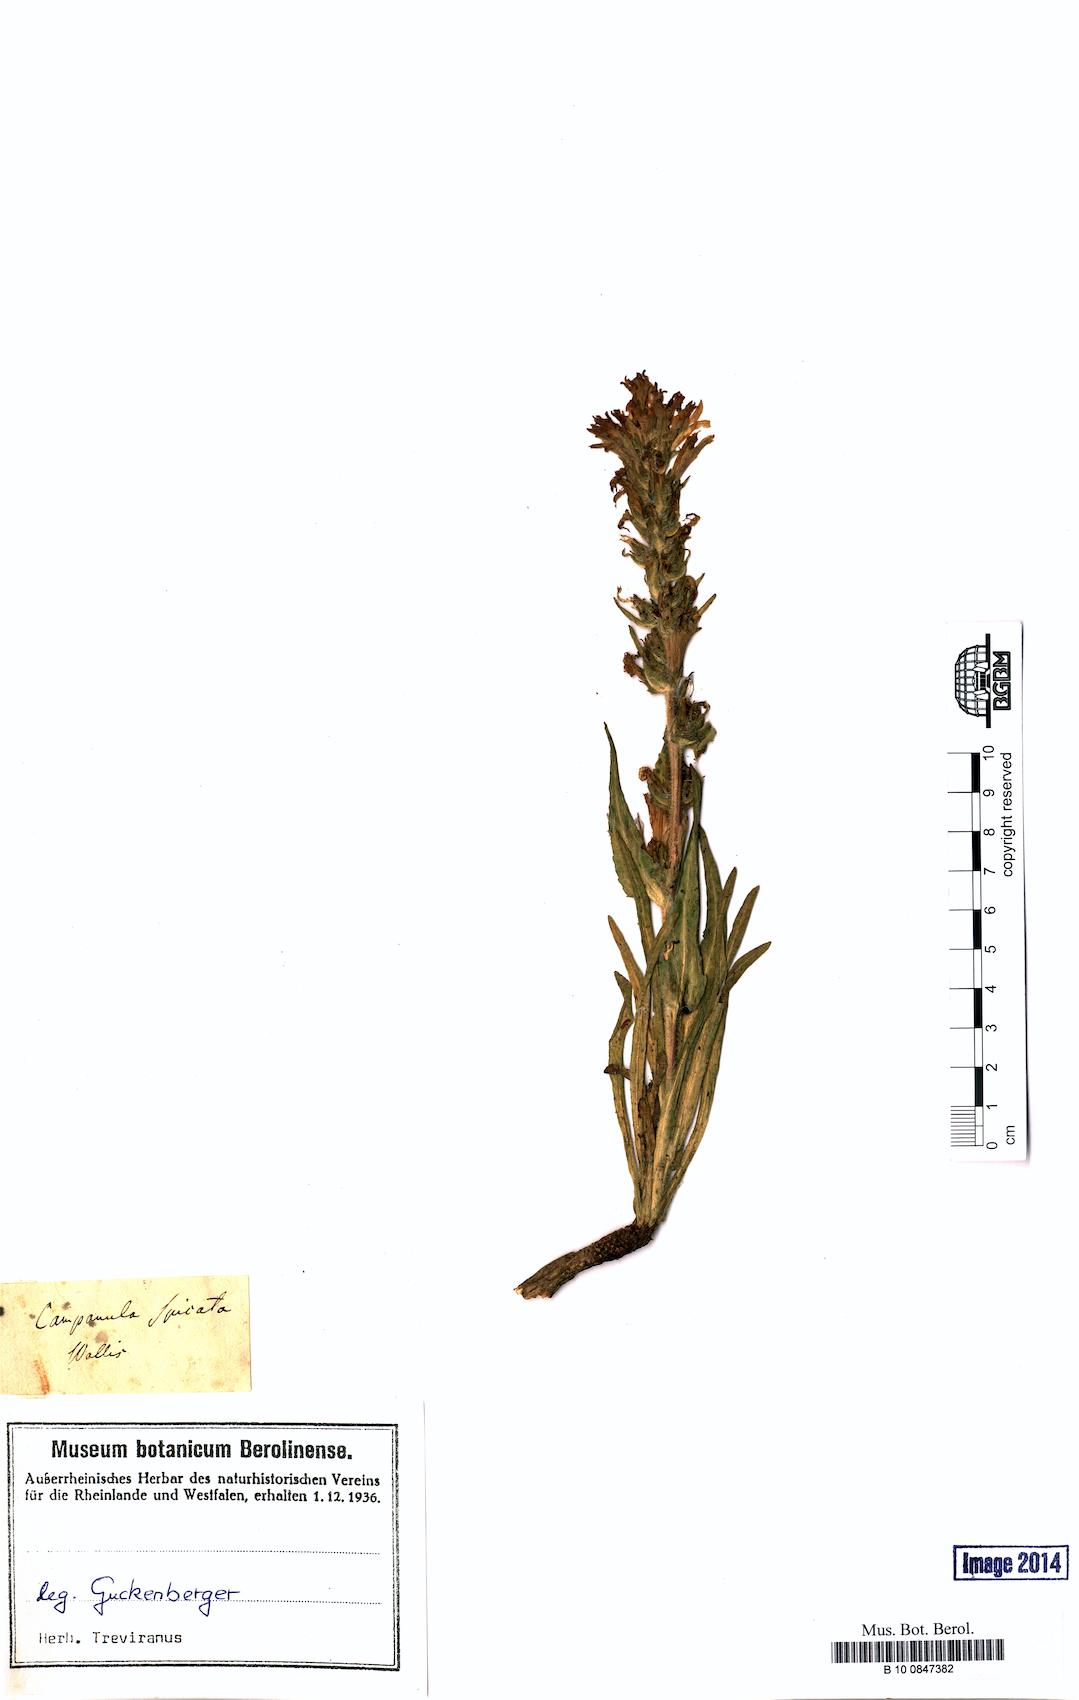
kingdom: Plantae
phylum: Tracheophyta
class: Magnoliopsida
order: Asterales
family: Campanulaceae
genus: Campanula
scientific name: Campanula spicata
